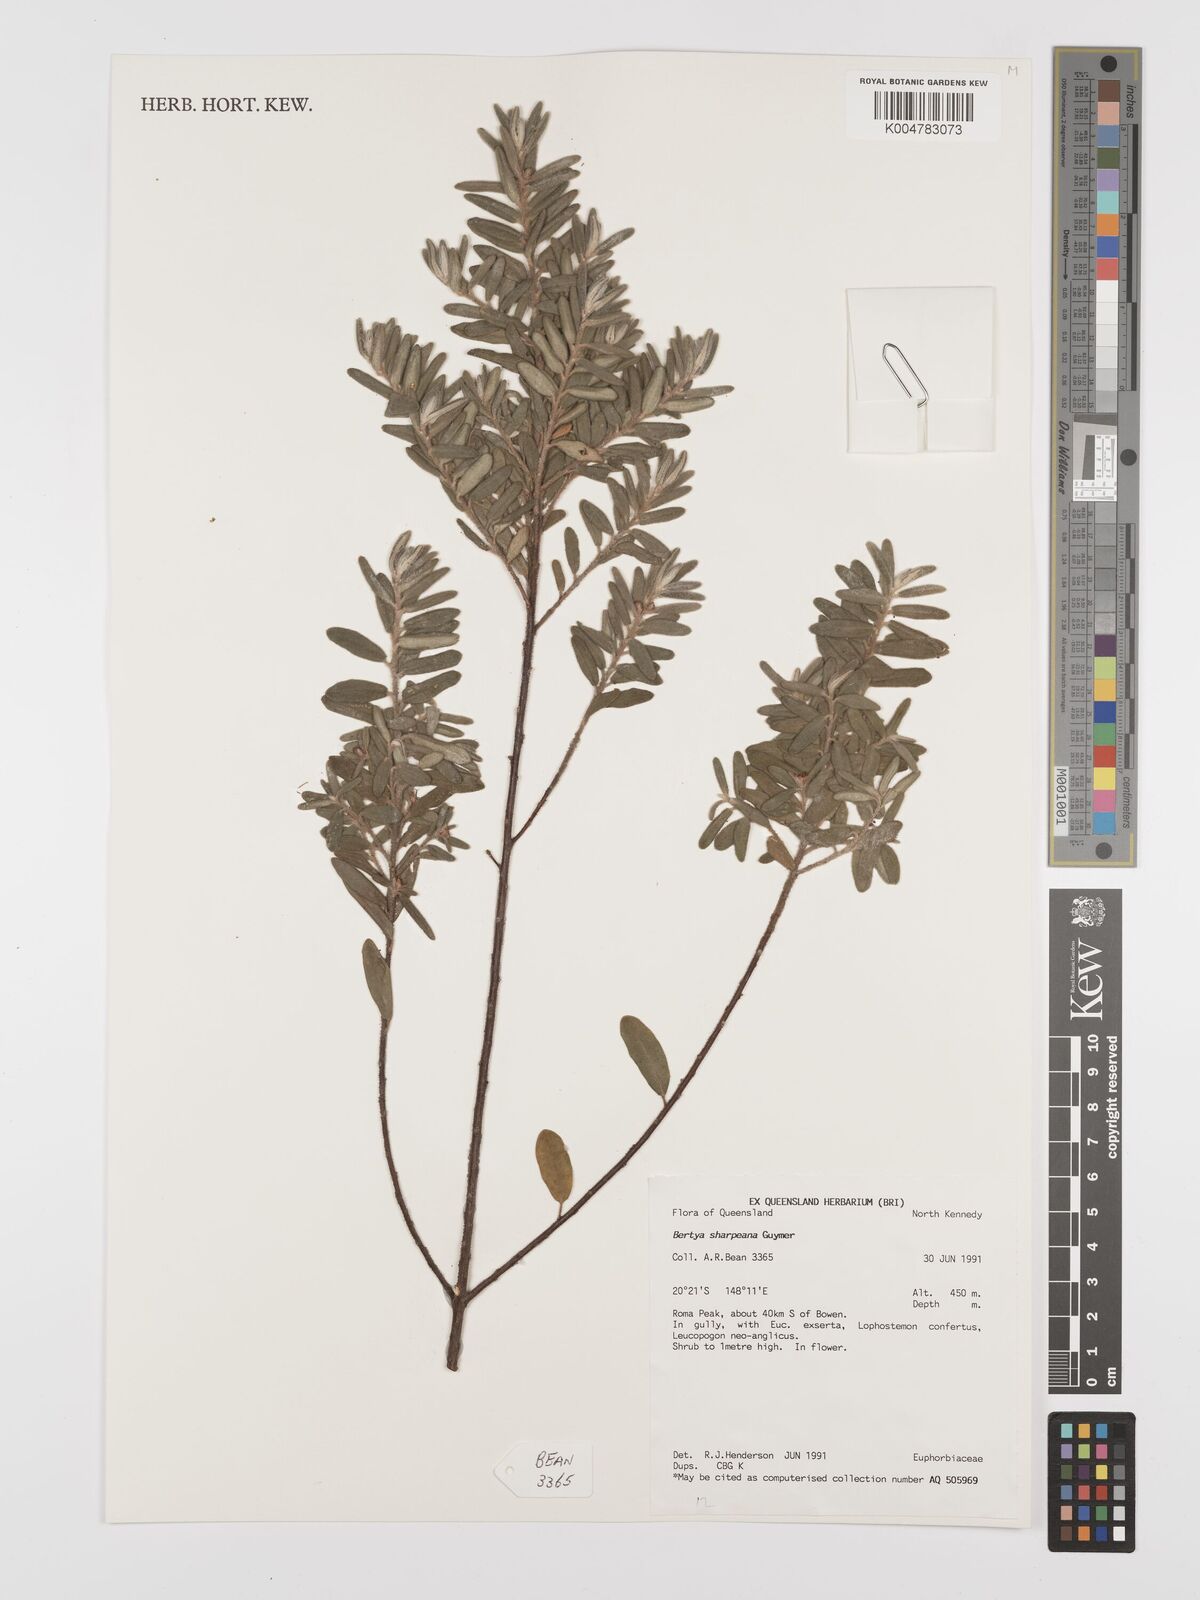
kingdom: Plantae
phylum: Tracheophyta
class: Magnoliopsida
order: Malpighiales
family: Euphorbiaceae
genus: Bertya
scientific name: Bertya sharpeana
